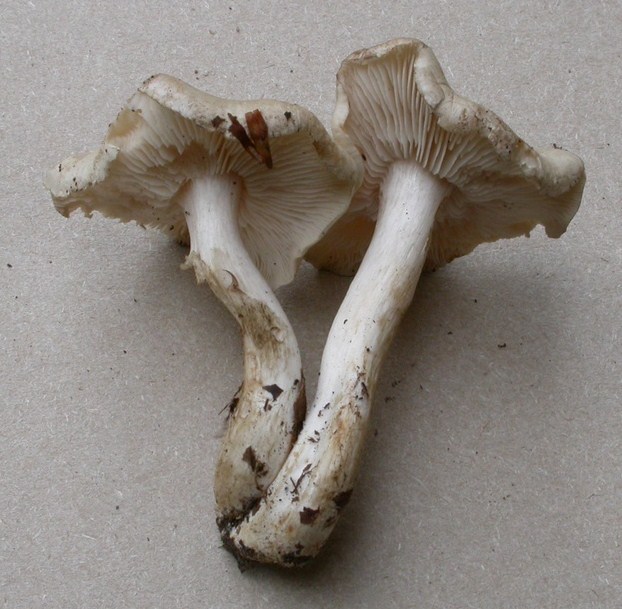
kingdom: Fungi
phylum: Basidiomycota
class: Agaricomycetes
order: Agaricales
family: Tricholomataceae
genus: Tricholoma
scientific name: Tricholoma lascivum
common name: stinkende ridderhat
